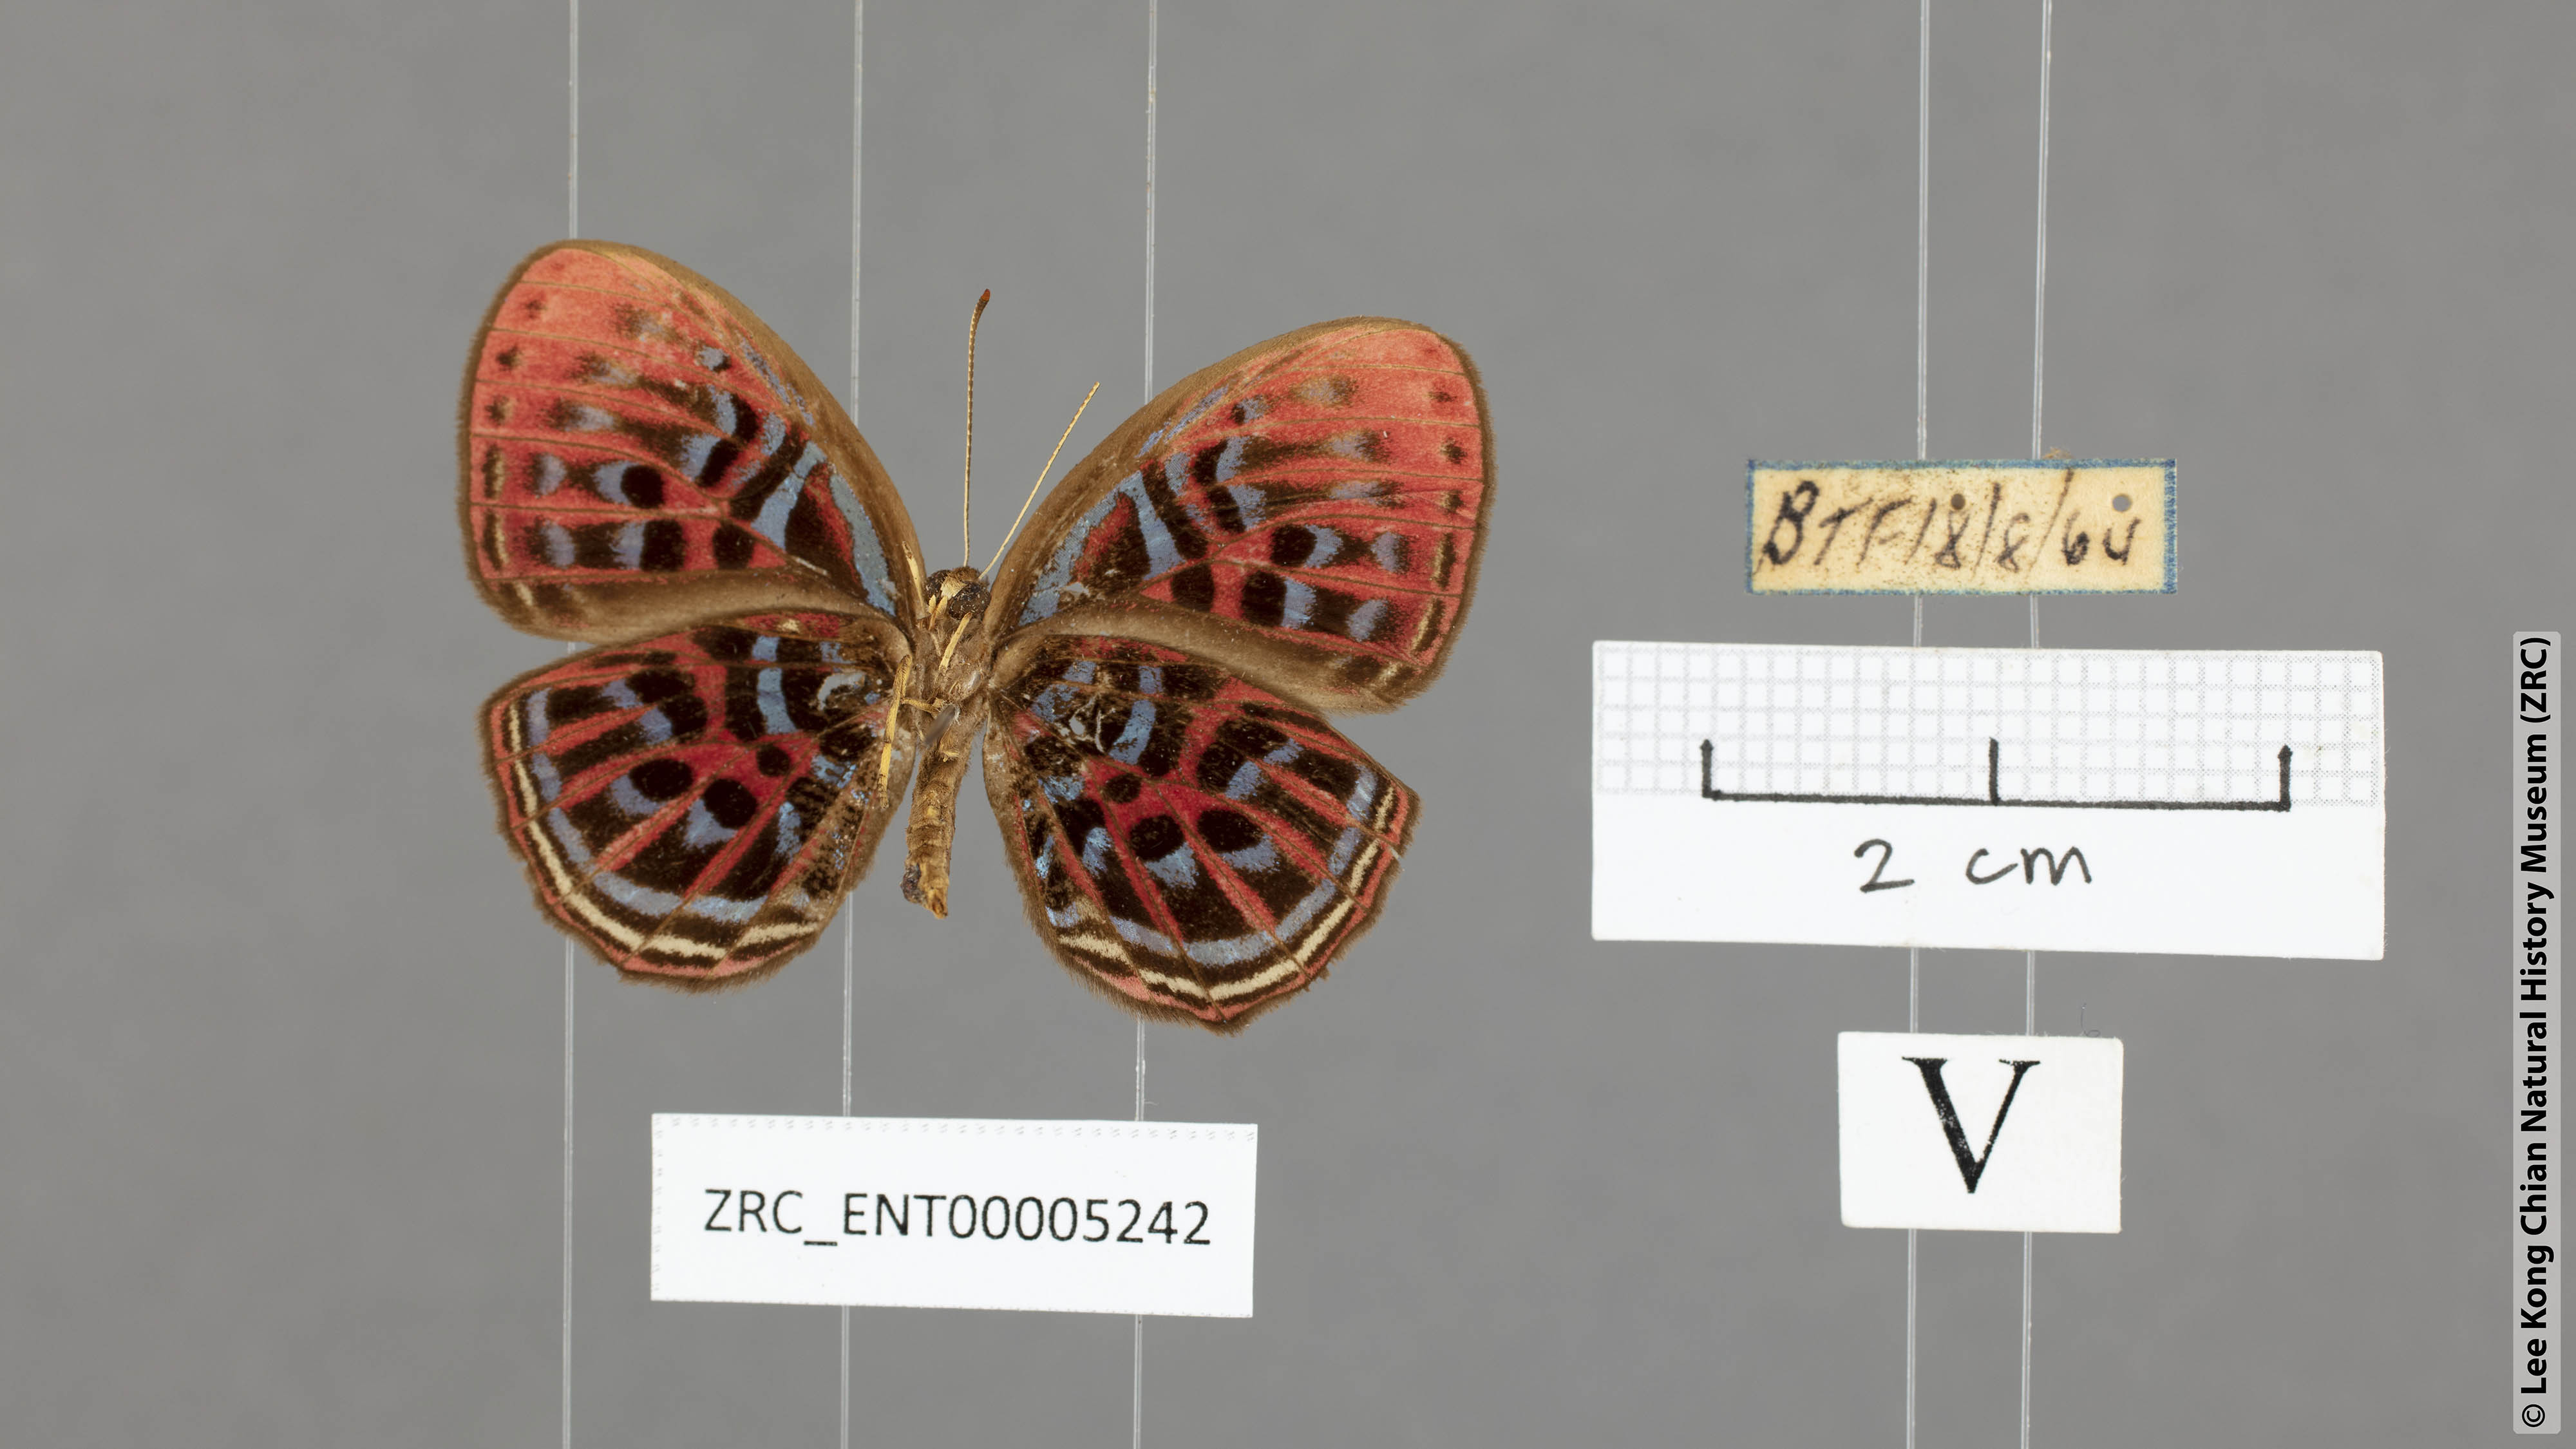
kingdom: Animalia
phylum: Arthropoda
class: Insecta
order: Lepidoptera
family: Riodinidae
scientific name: Riodinidae
